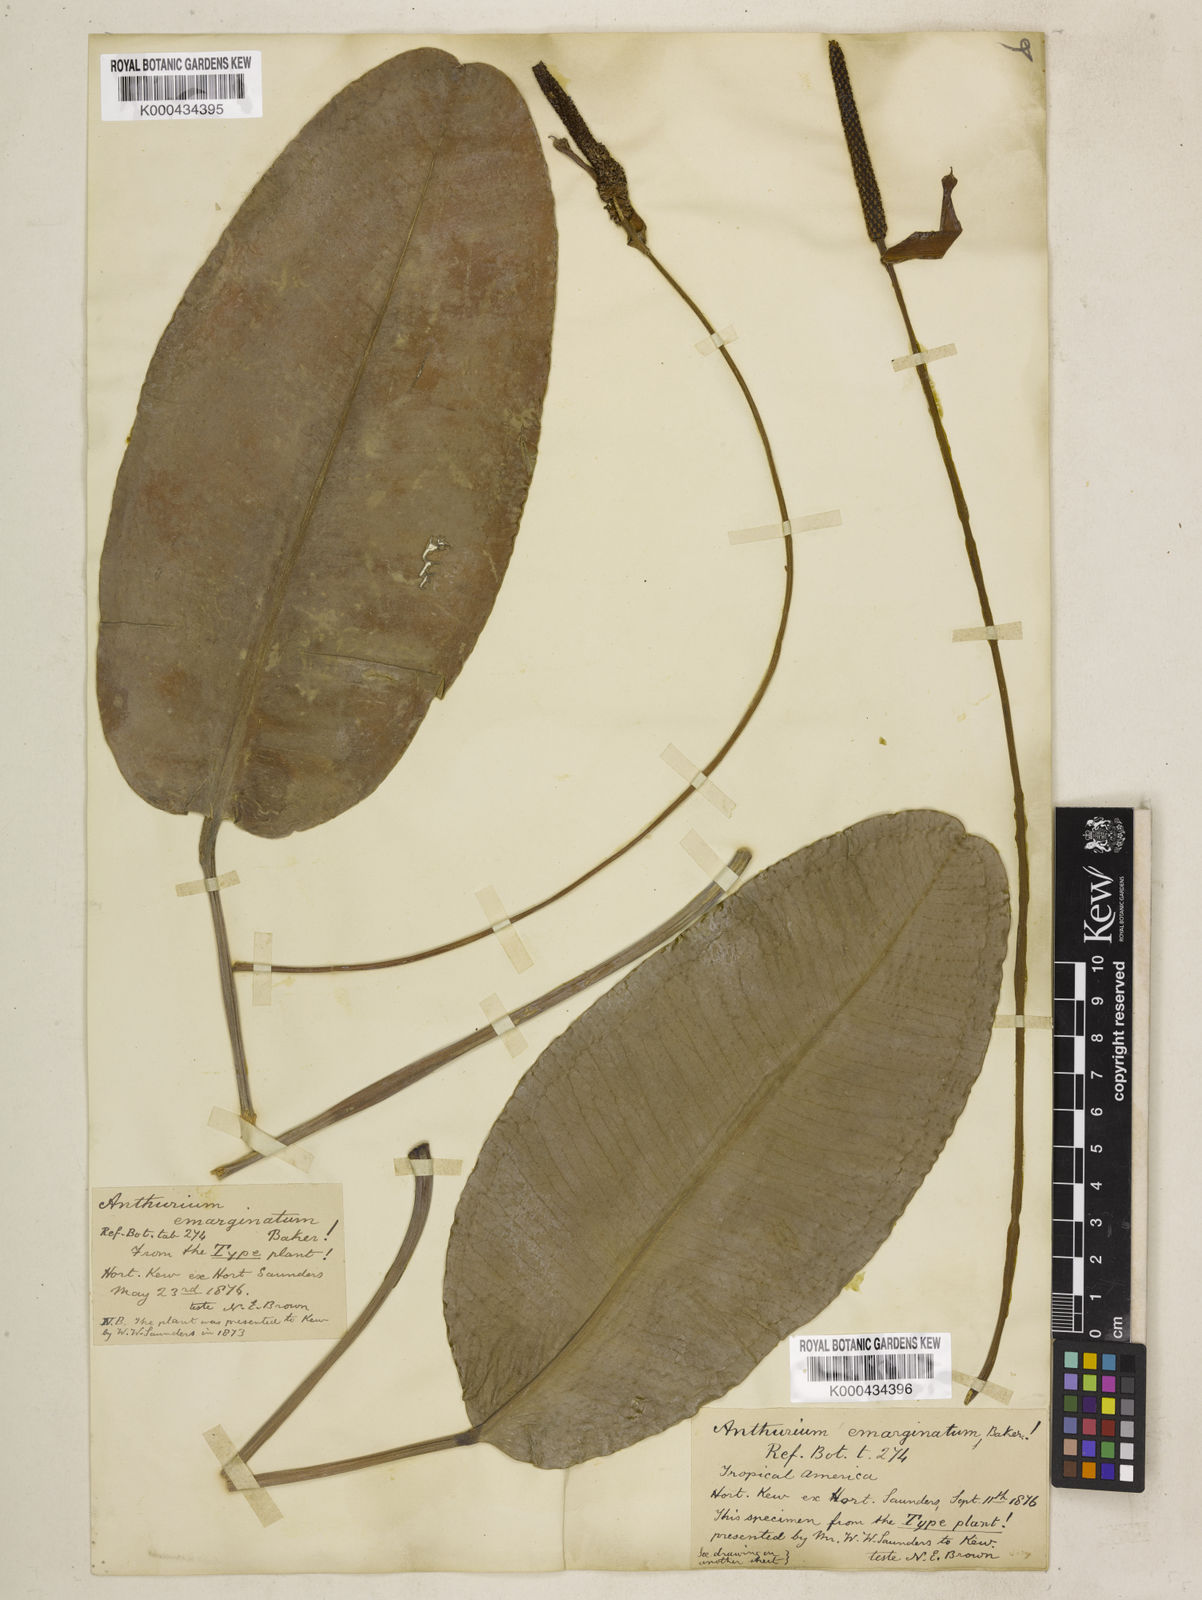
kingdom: Plantae
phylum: Tracheophyta
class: Liliopsida
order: Alismatales
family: Araceae
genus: Anthurium
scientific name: Anthurium emarginatum
